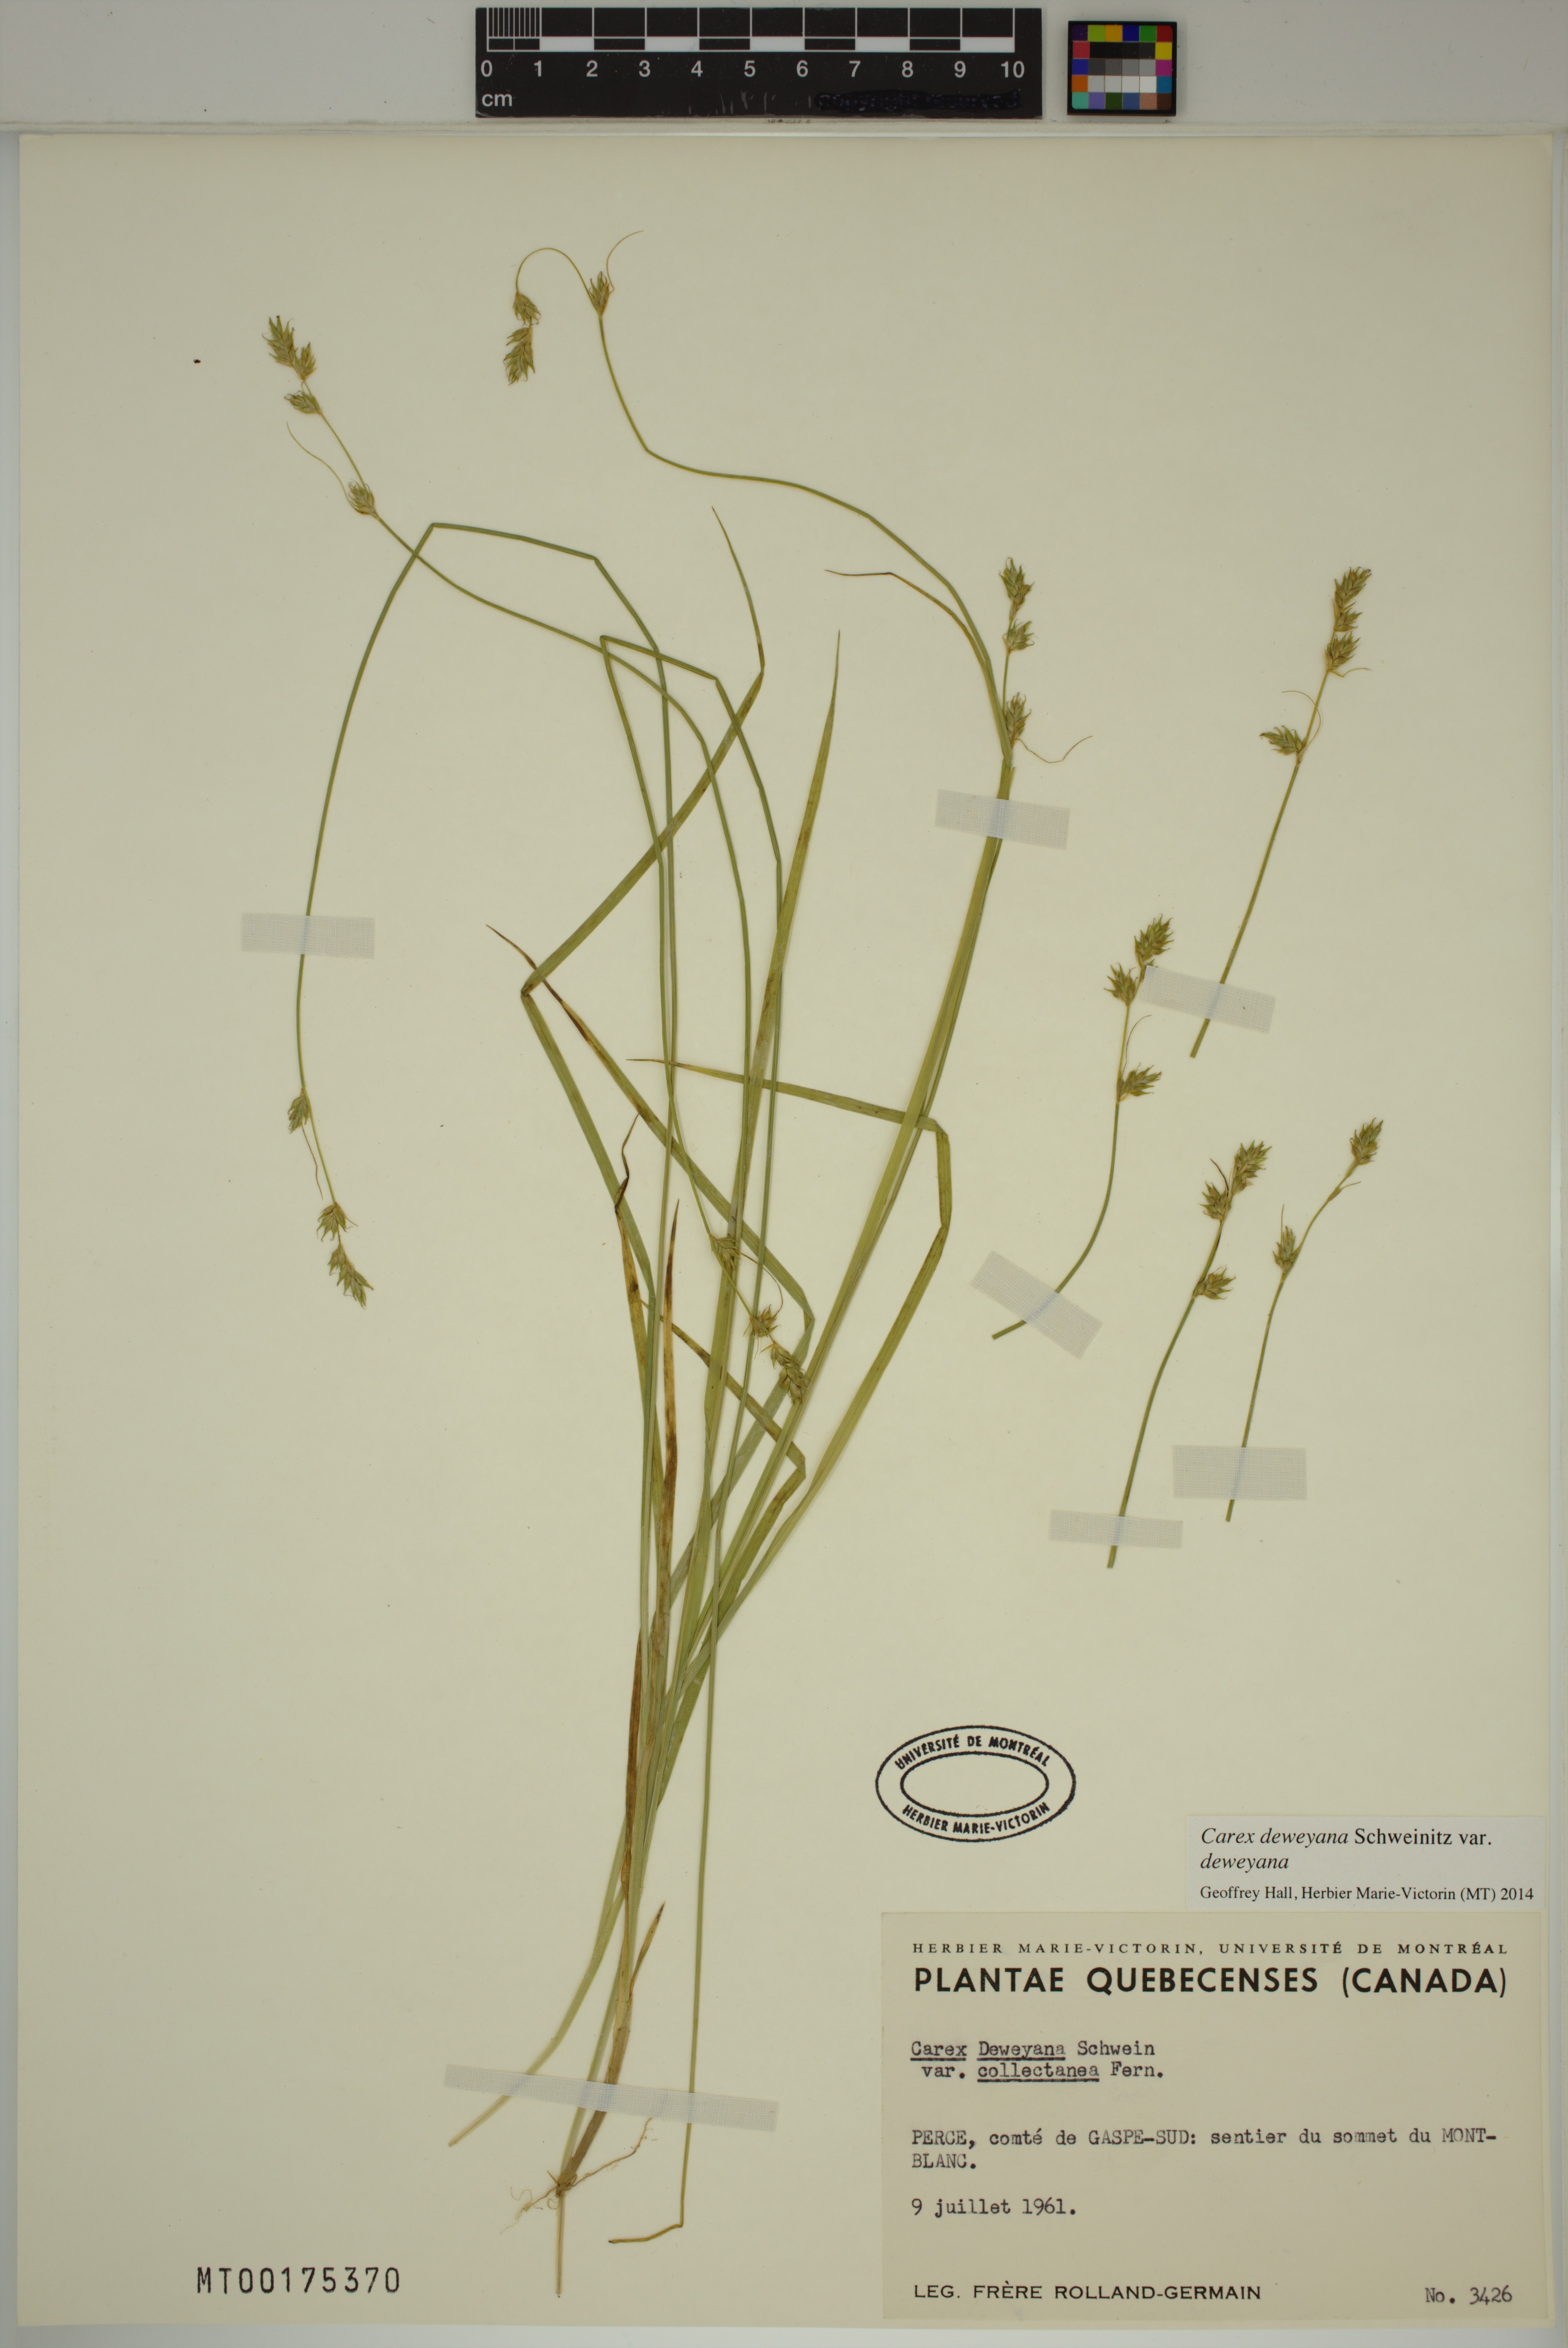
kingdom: Plantae
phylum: Tracheophyta
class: Liliopsida
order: Poales
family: Cyperaceae
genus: Carex
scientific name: Carex deweyana
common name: Dewey's sedge
